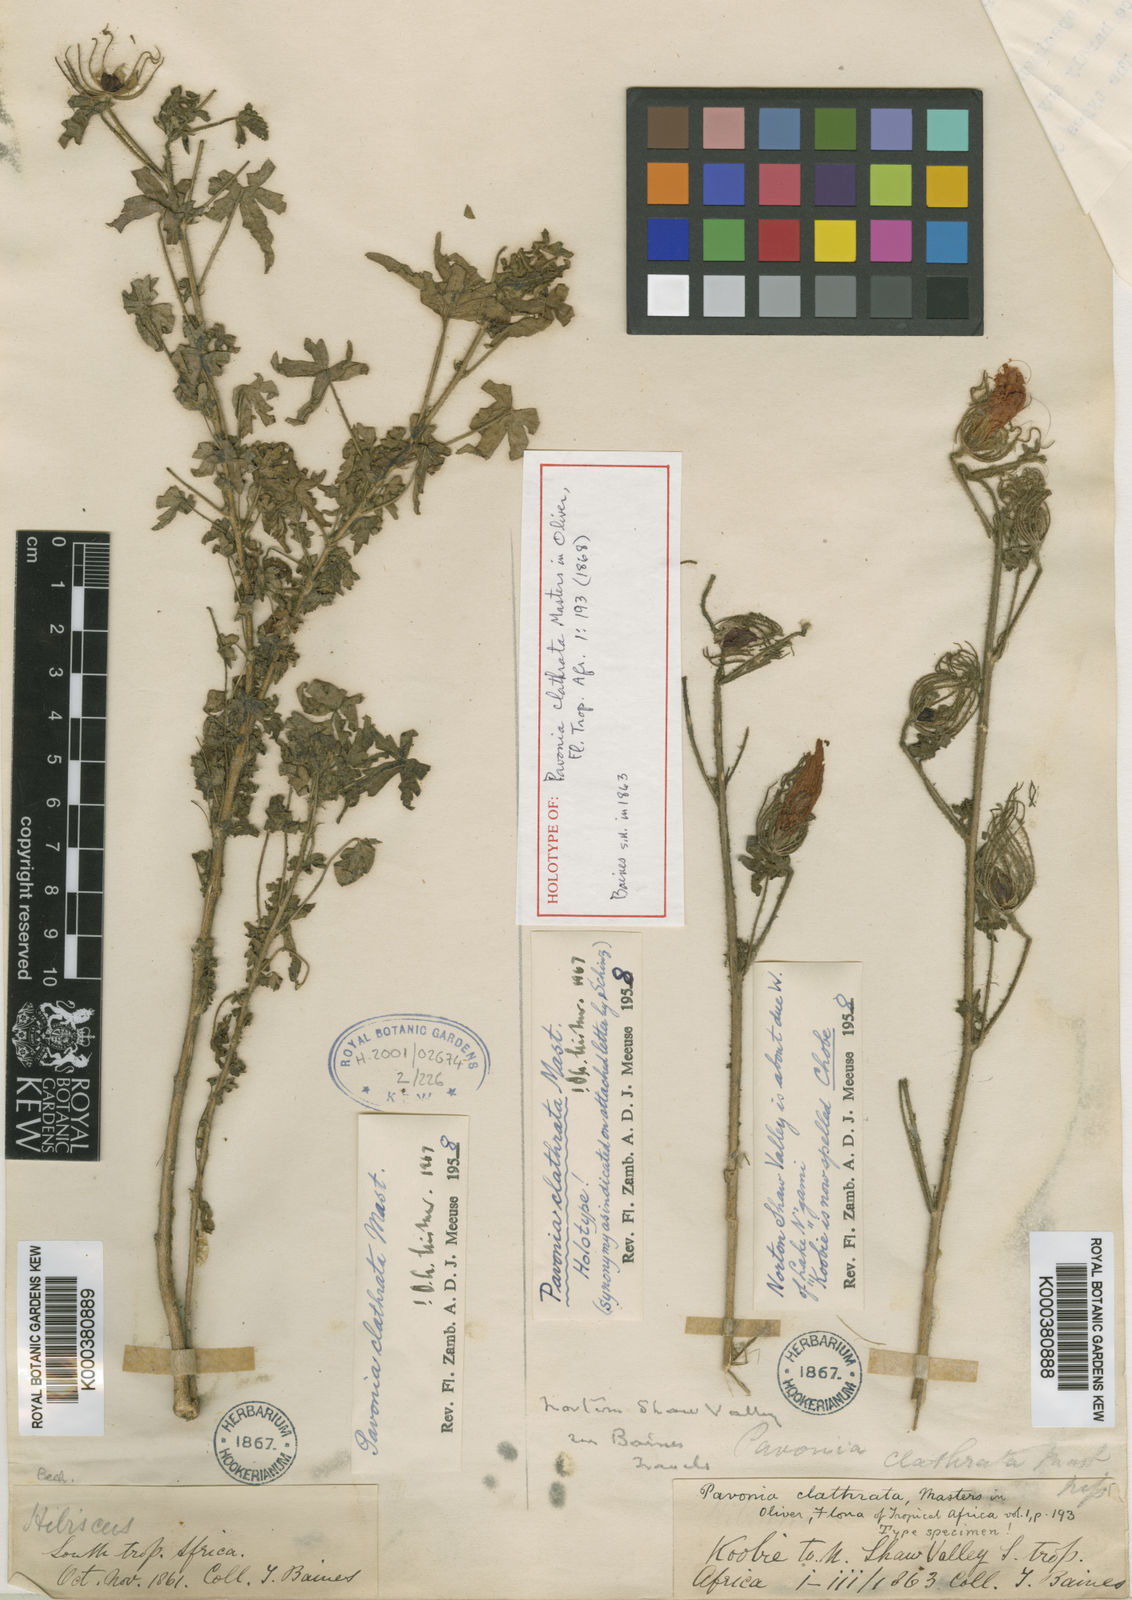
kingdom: Plantae
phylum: Tracheophyta
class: Magnoliopsida
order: Malvales
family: Malvaceae
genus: Pavonia
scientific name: Pavonia clathrata
